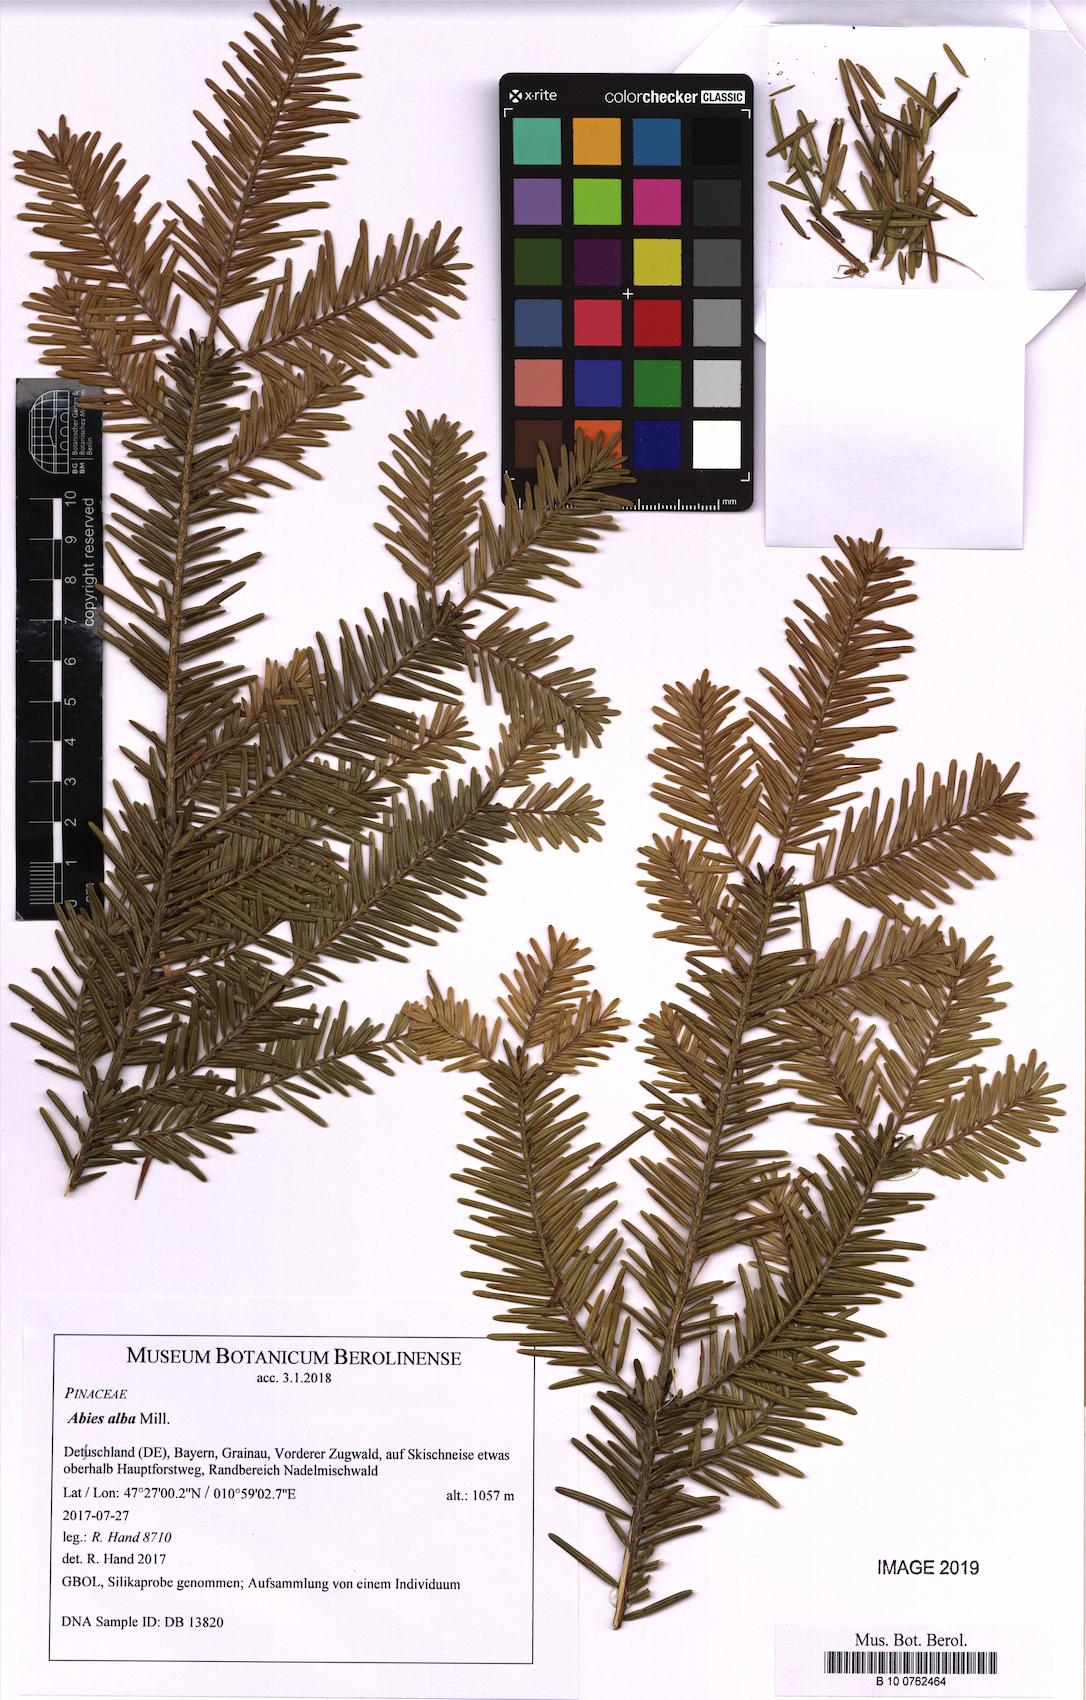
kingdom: Plantae
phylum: Tracheophyta
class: Pinopsida
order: Pinales
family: Pinaceae
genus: Abies
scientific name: Abies alba
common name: Silver fir
